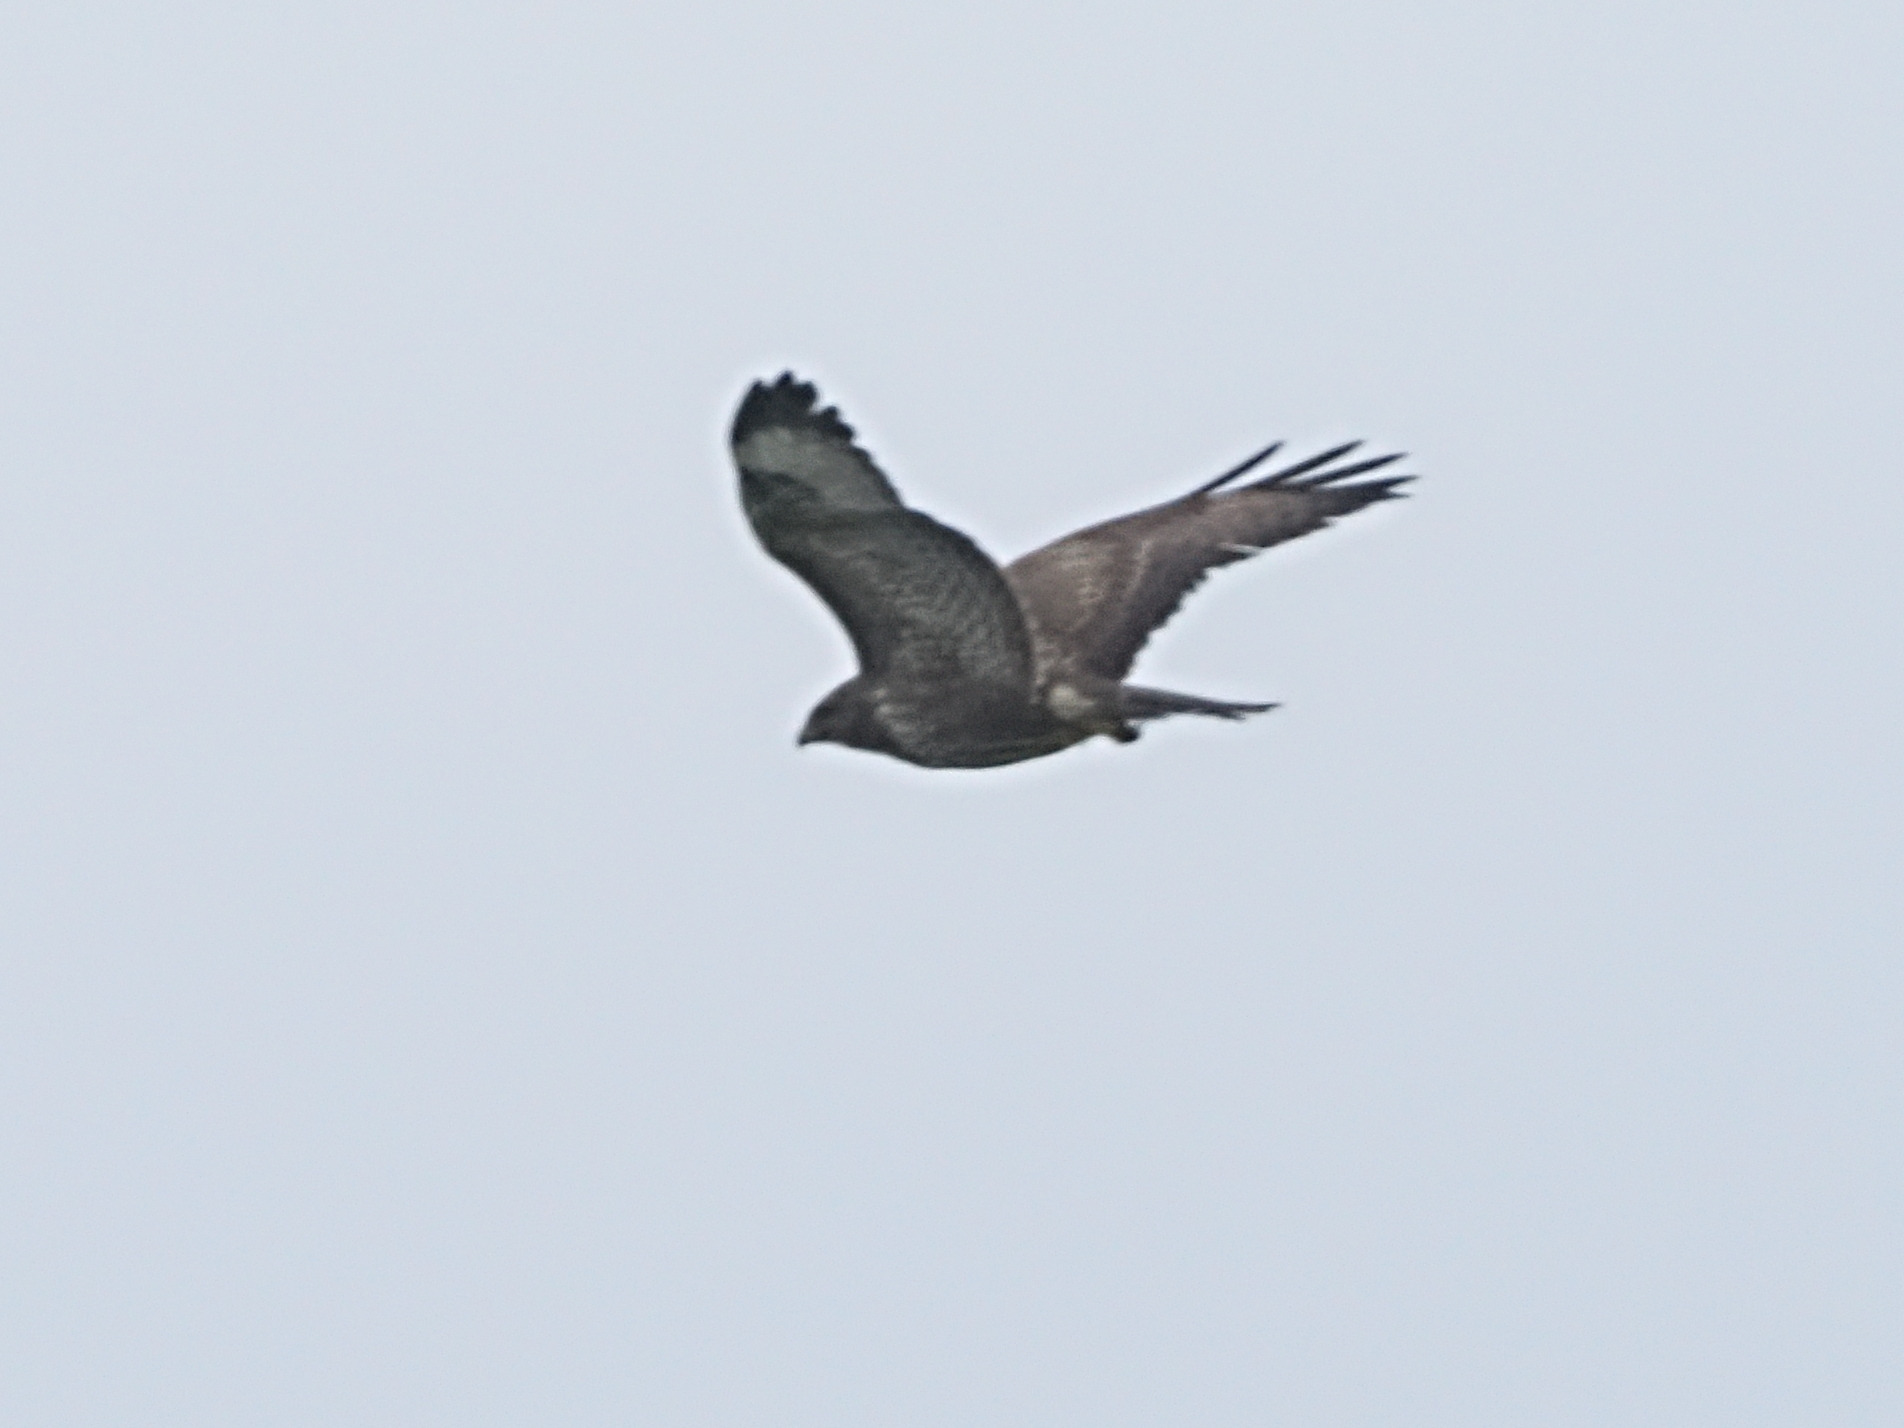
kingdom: Animalia
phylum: Chordata
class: Aves
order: Accipitriformes
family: Accipitridae
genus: Buteo
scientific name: Buteo buteo
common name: Musvåge
